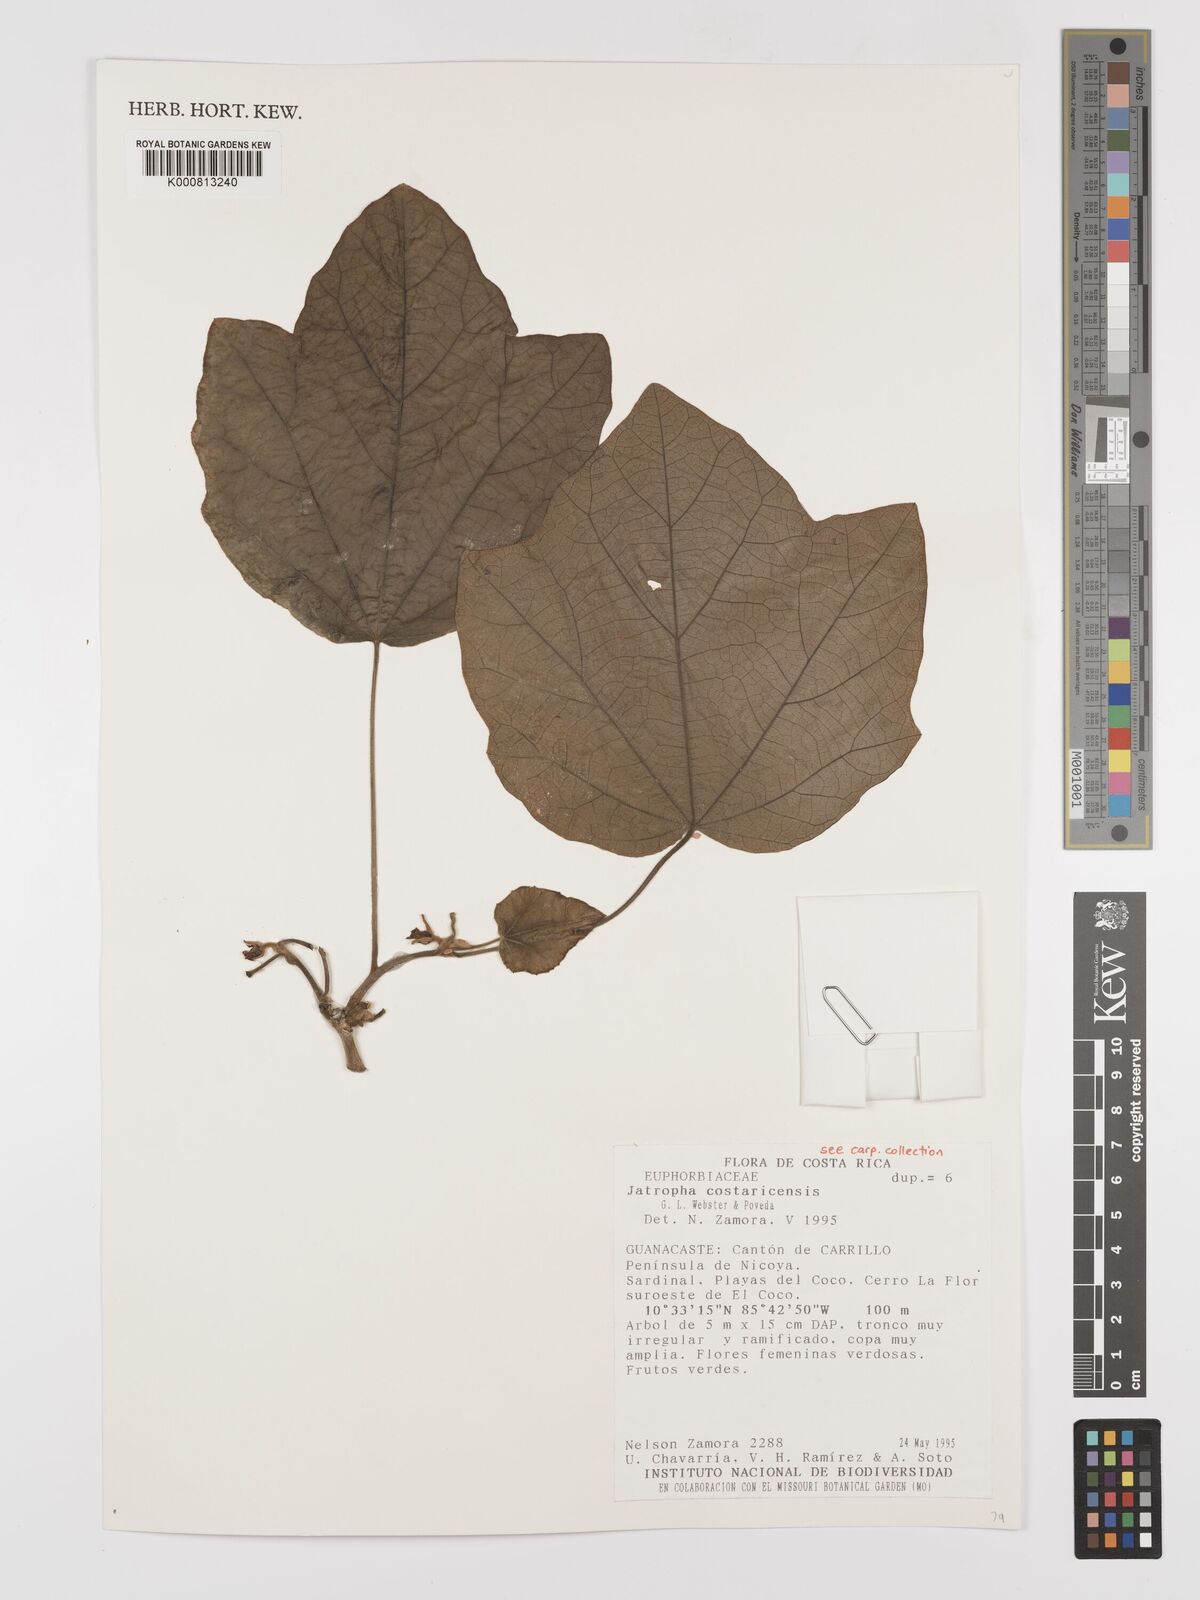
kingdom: Plantae
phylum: Tracheophyta
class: Magnoliopsida
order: Malpighiales
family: Euphorbiaceae
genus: Jatropha
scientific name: Jatropha costaricensis
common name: Costa rican jatropha
